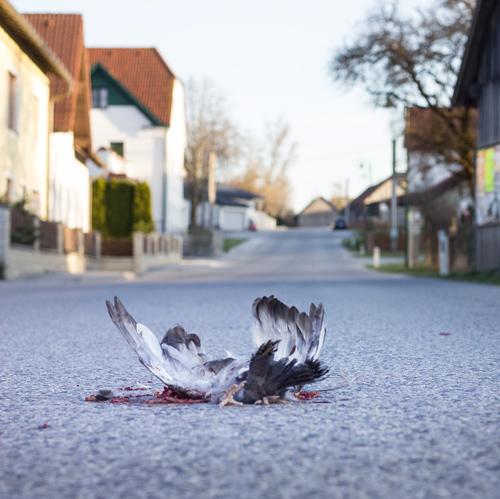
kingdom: Animalia
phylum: Chordata
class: Aves
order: Columbiformes
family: Columbidae
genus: Columba
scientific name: Columba livia
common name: Rock pigeon
